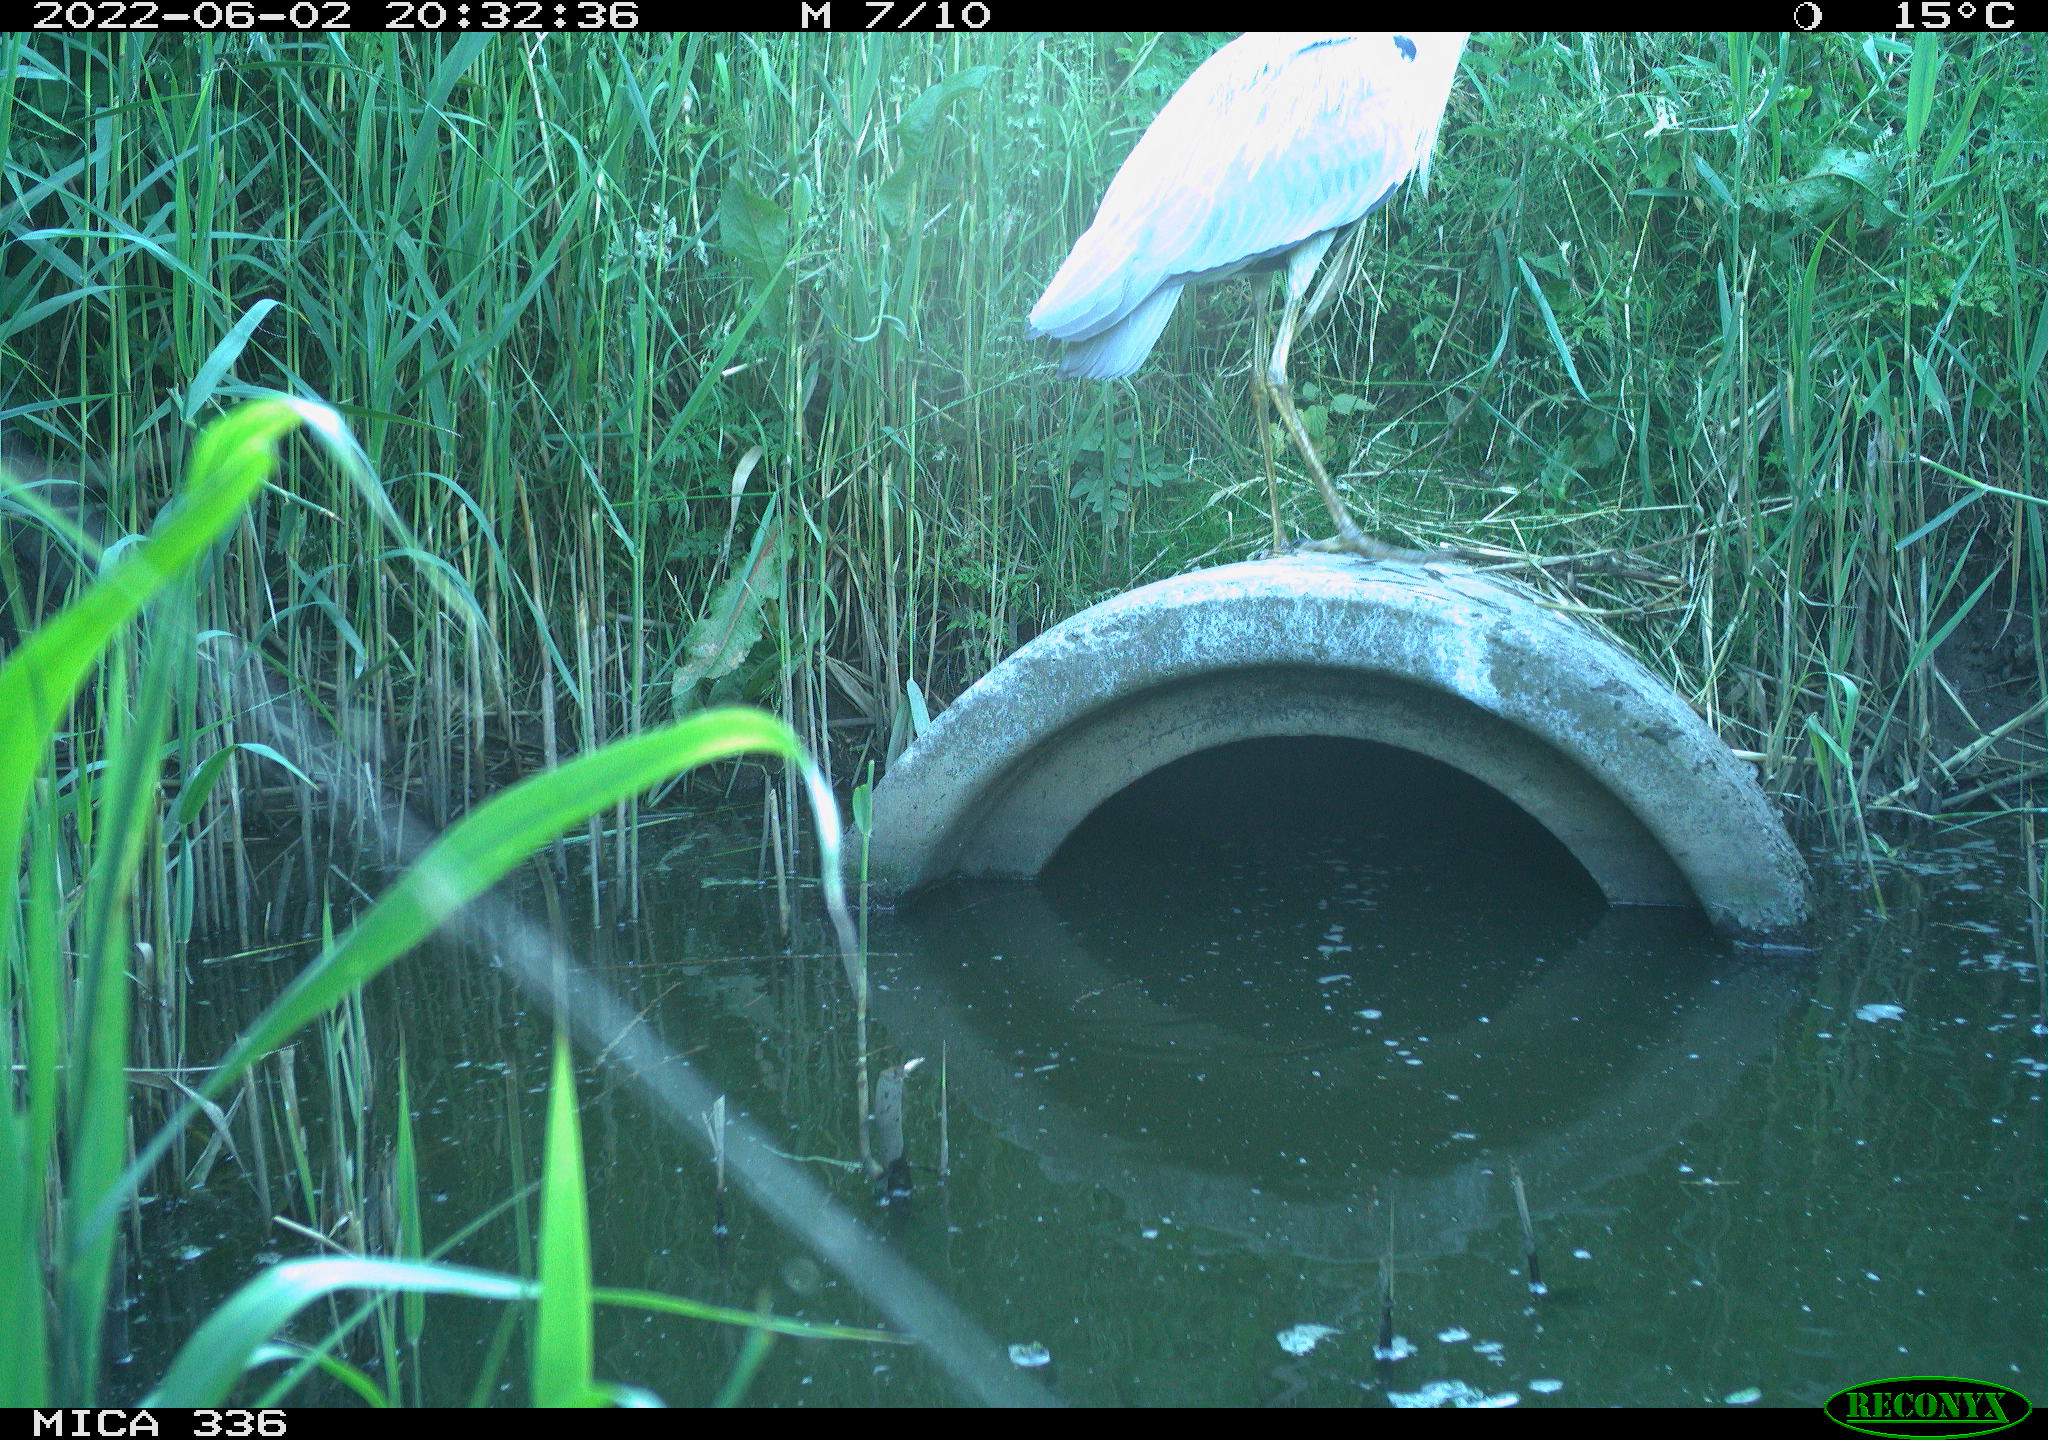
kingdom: Animalia
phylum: Chordata
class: Aves
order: Pelecaniformes
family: Ardeidae
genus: Ardea
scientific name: Ardea
